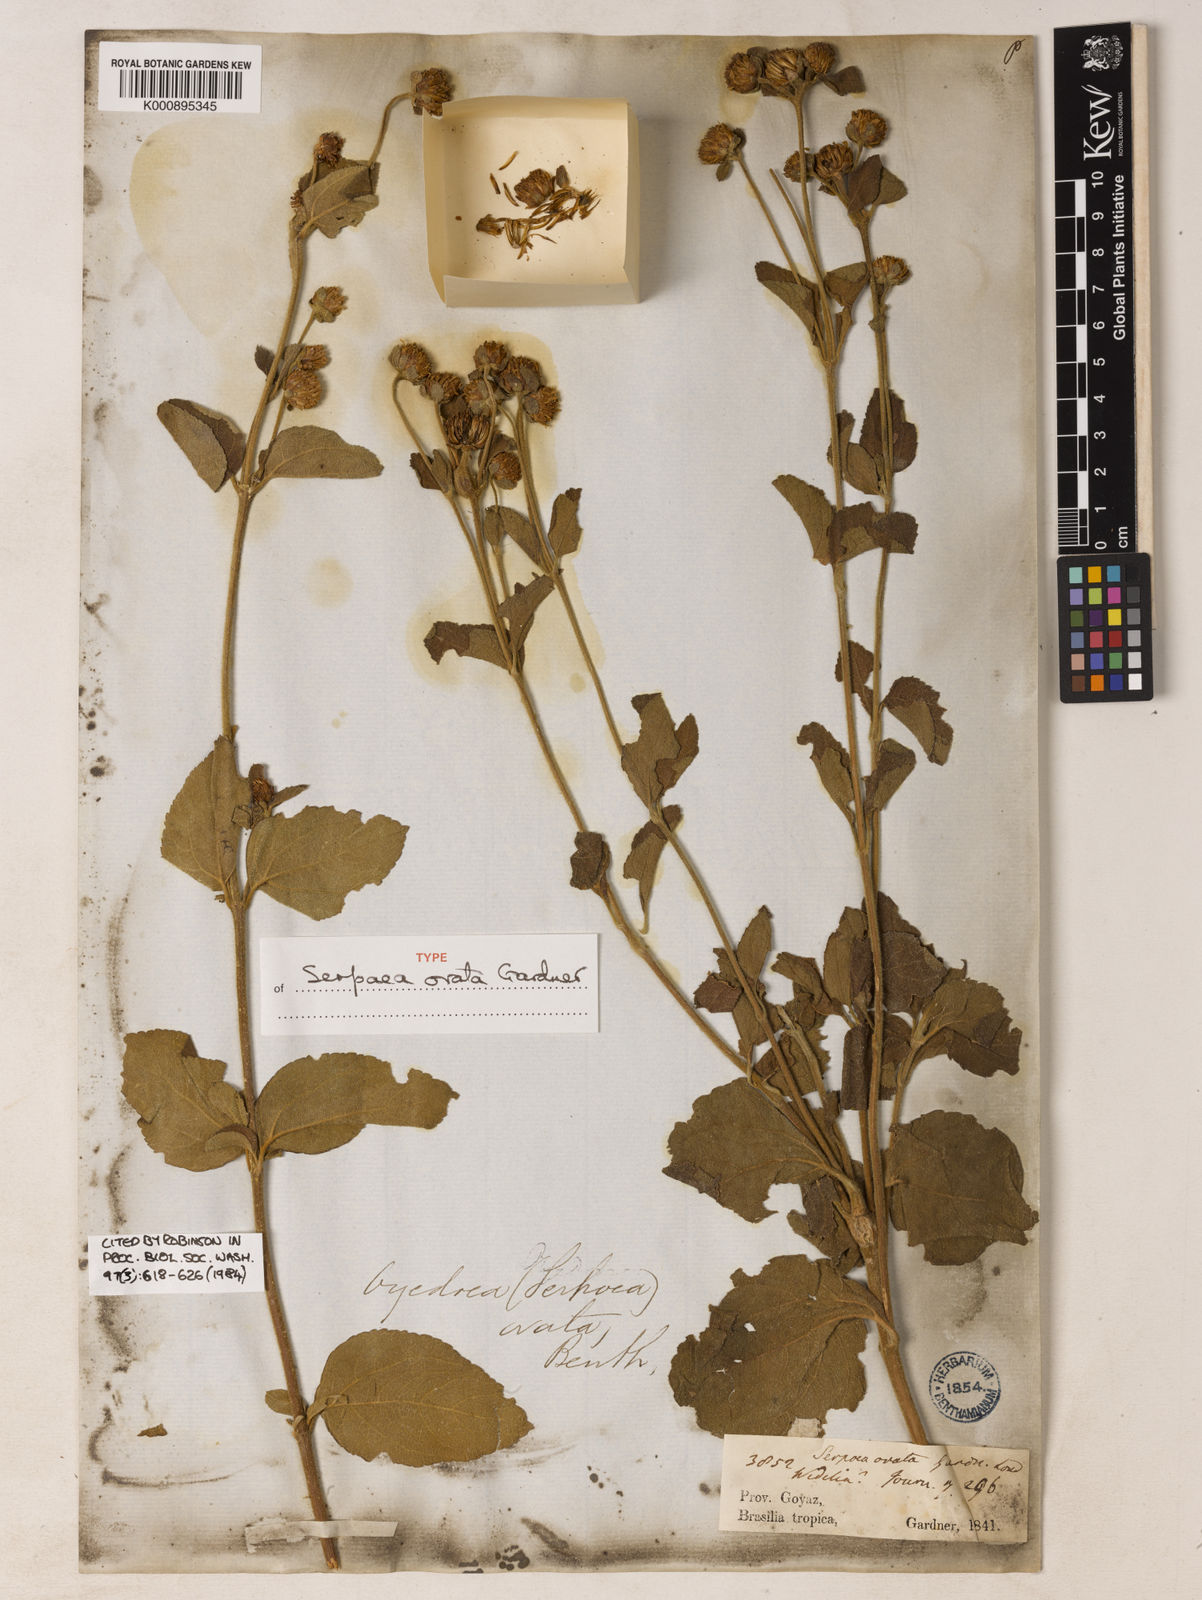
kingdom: Plantae
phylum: Tracheophyta
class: Magnoliopsida
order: Asterales
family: Asteraceae
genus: Dimerostemma
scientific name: Dimerostemma brasilianum
